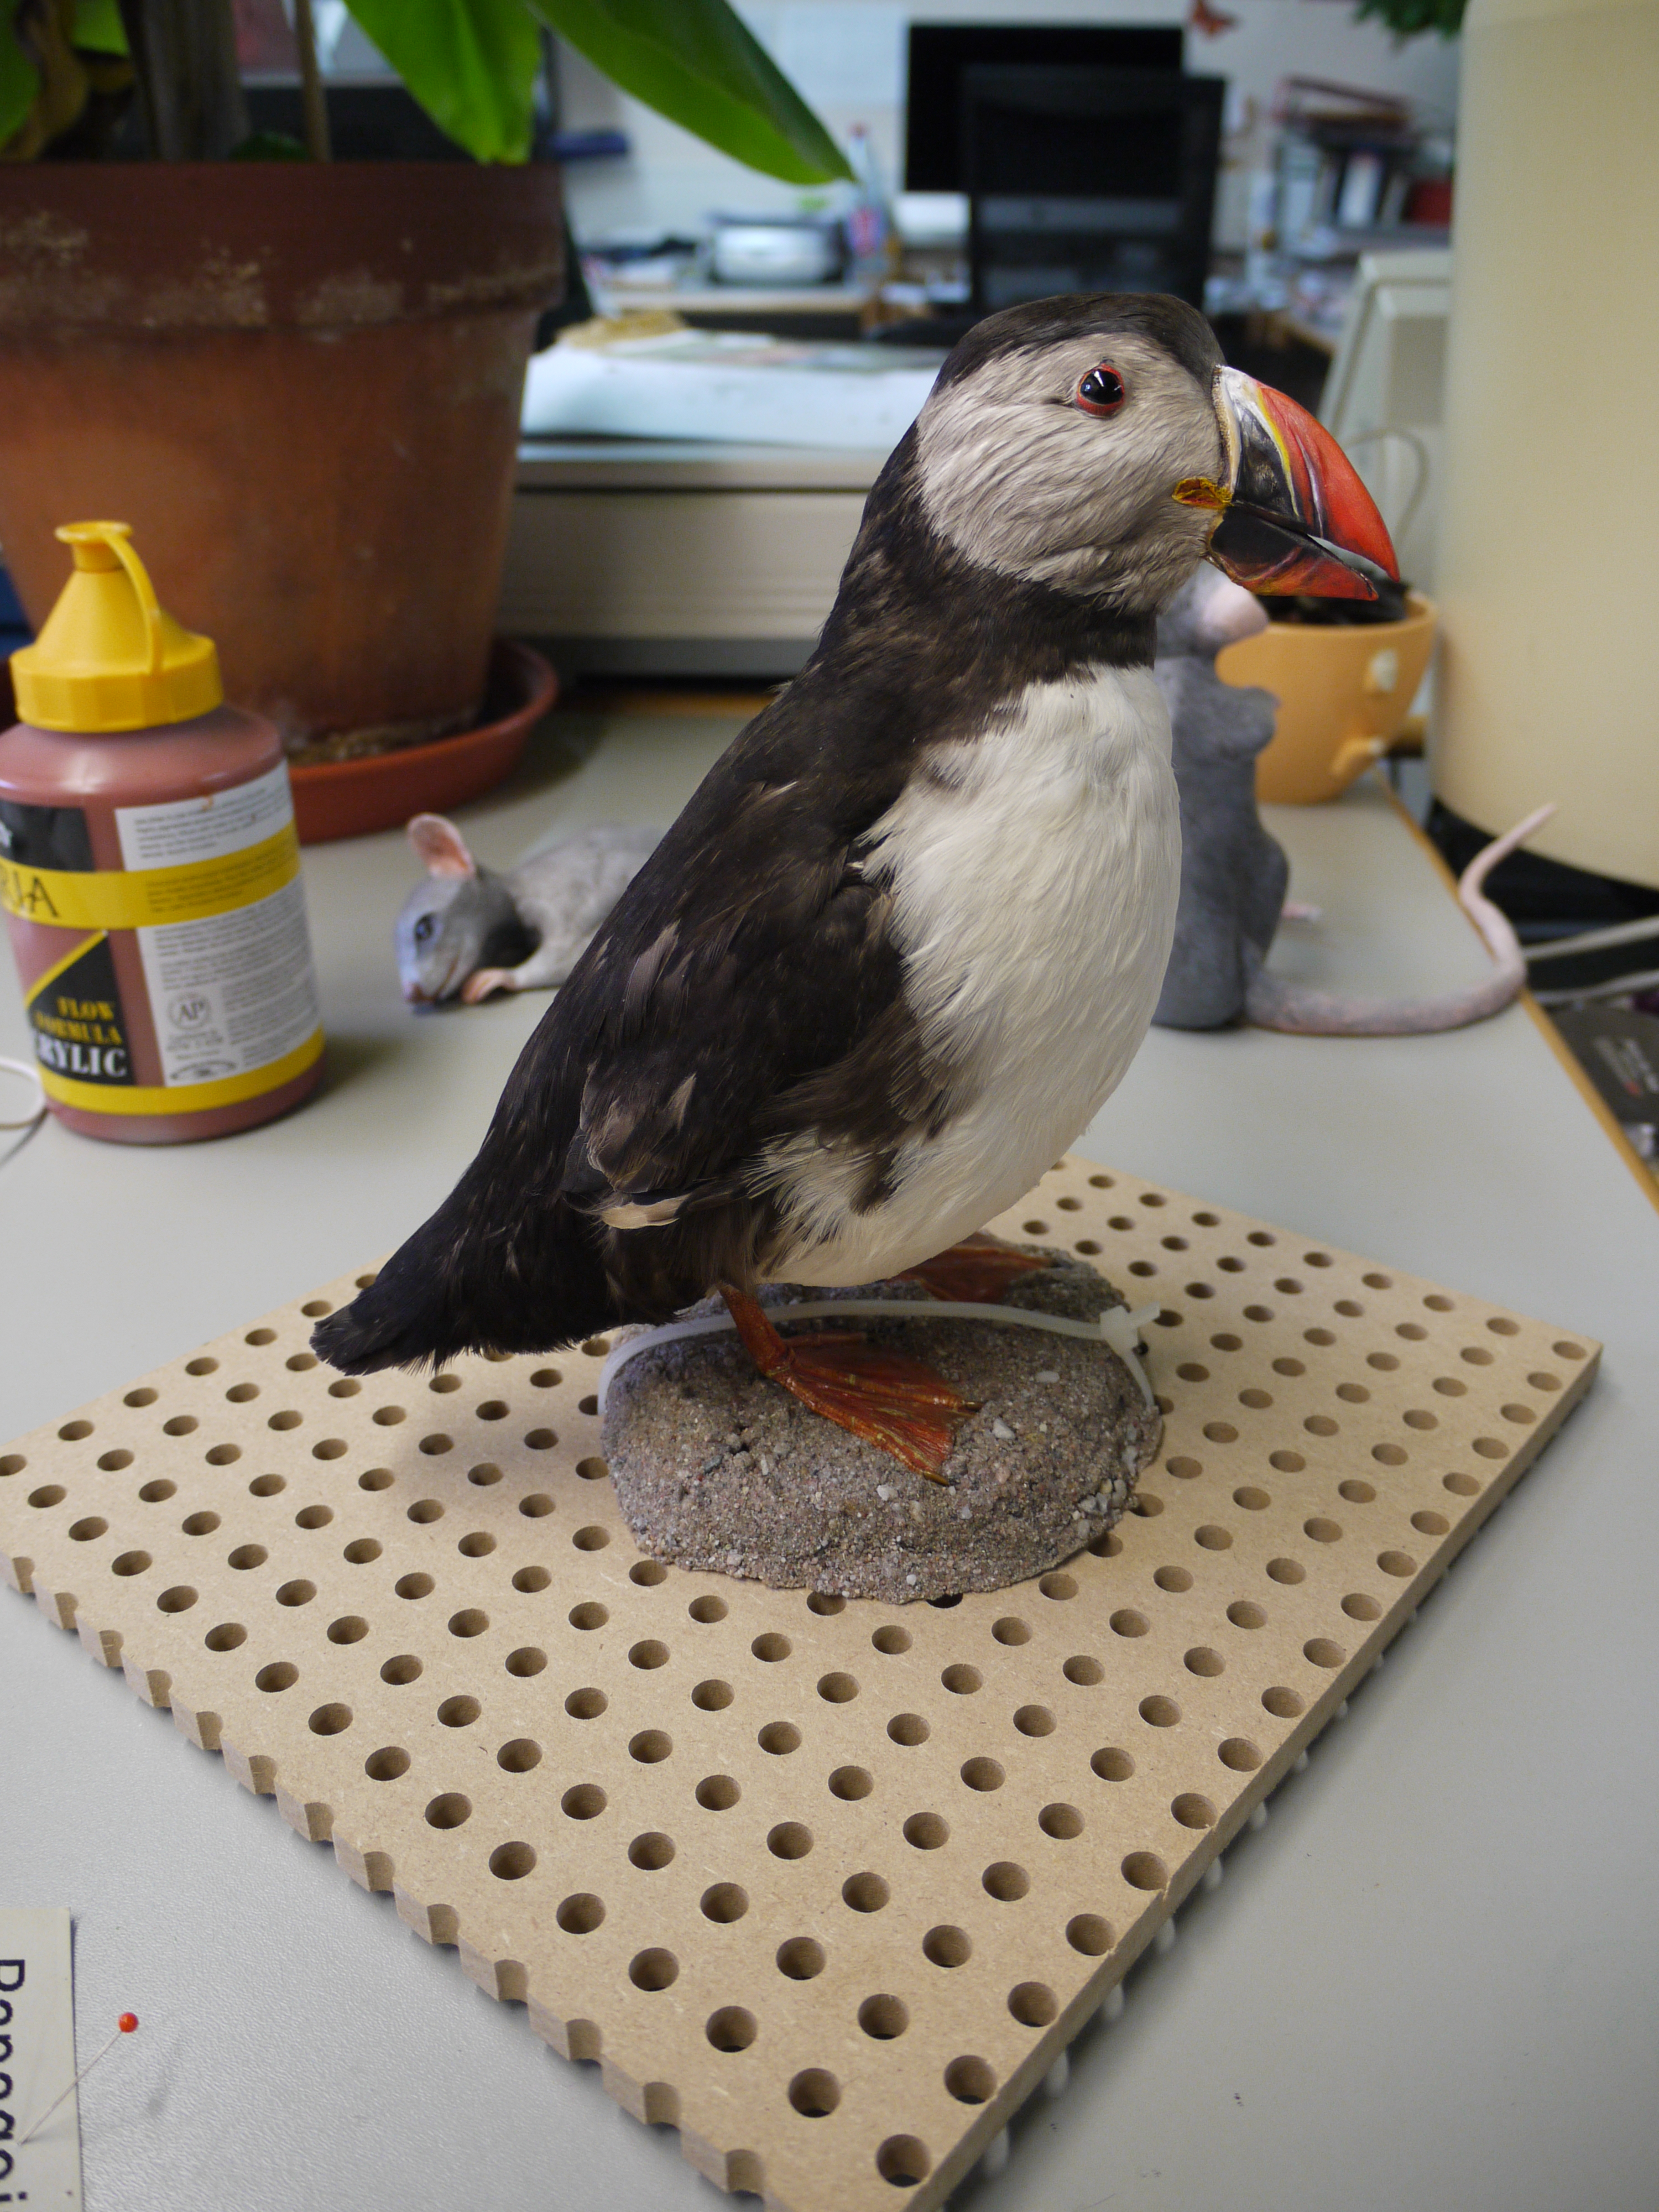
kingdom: Animalia
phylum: Chordata
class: Aves
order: Charadriiformes
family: Alcidae
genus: Fratercula
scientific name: Fratercula arctica
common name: Atlantic puffin
